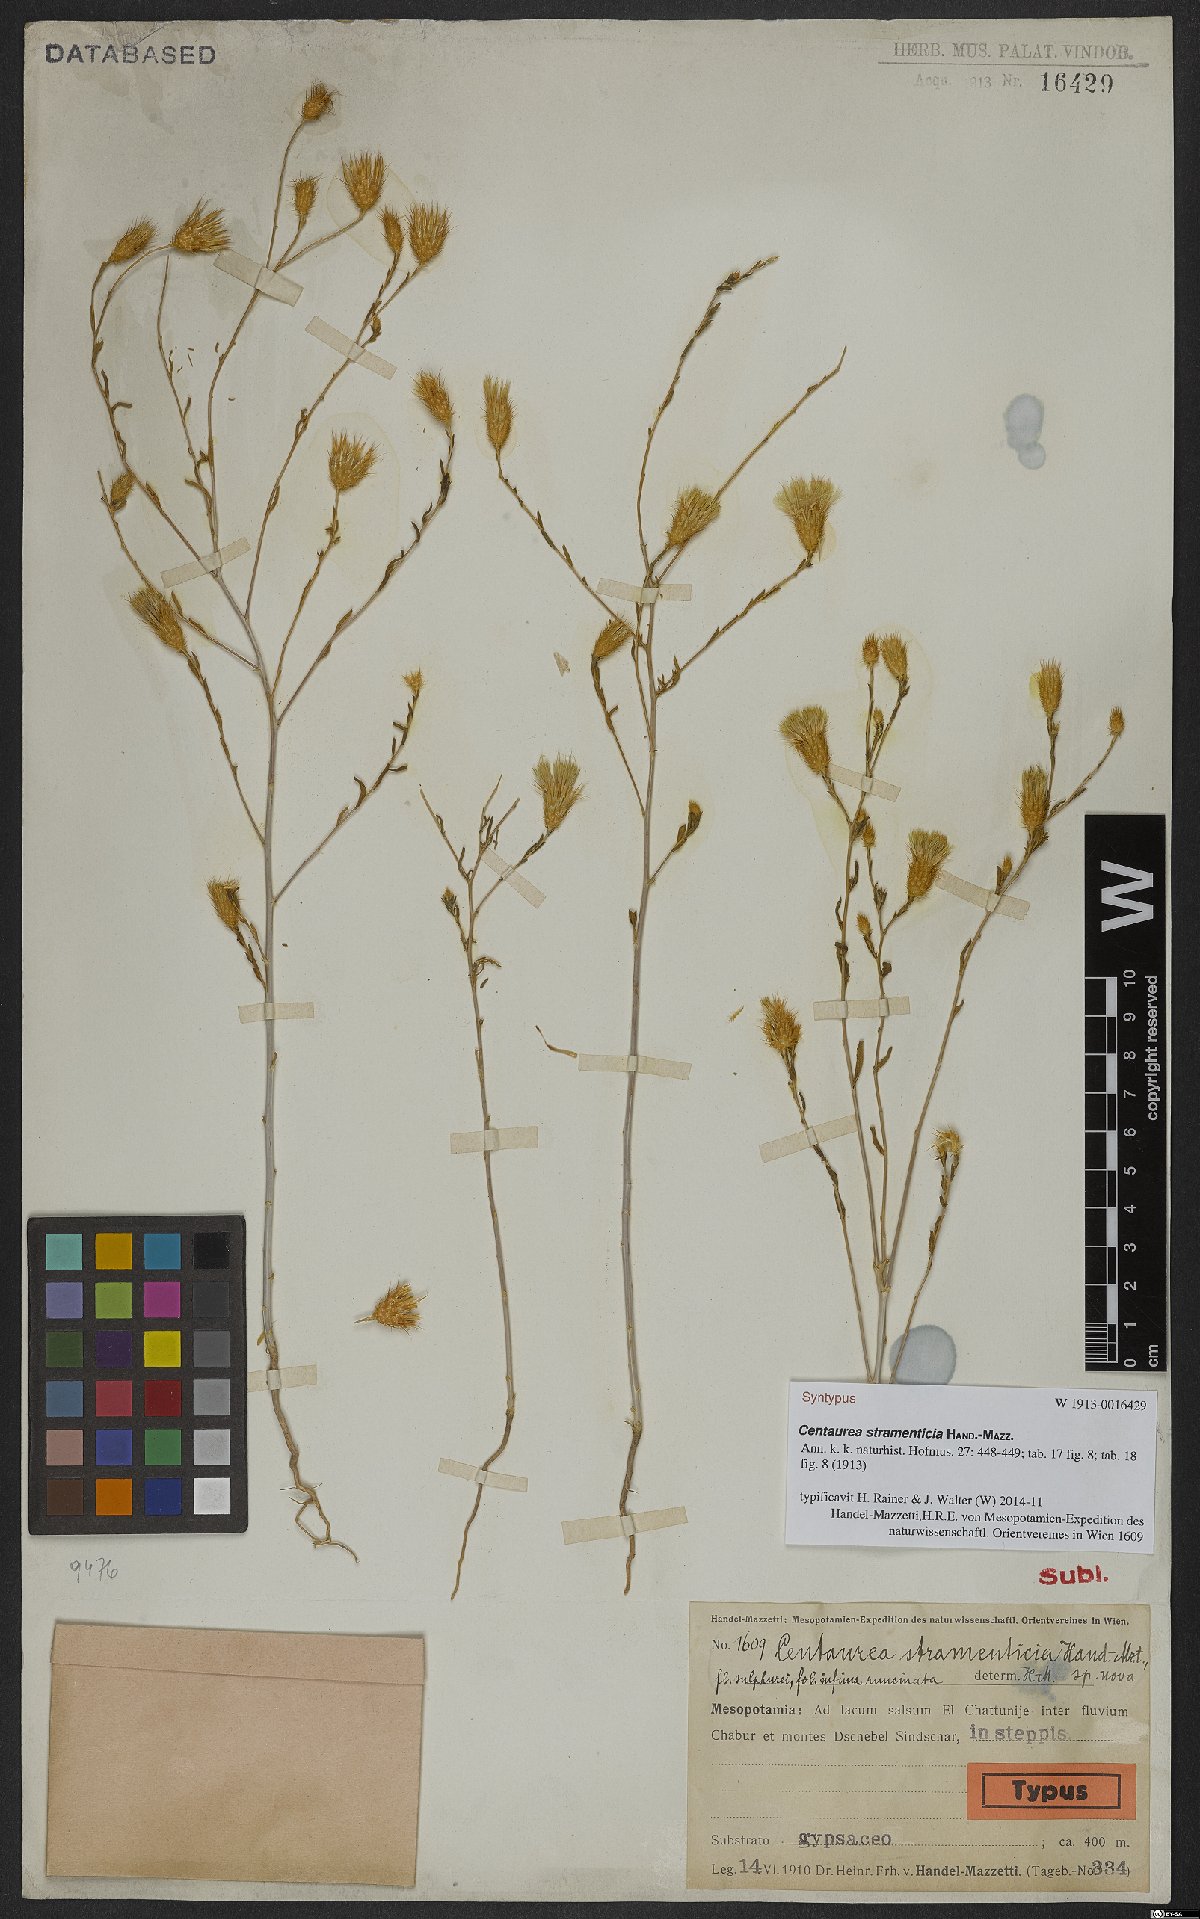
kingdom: Plantae
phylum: Tracheophyta
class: Magnoliopsida
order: Asterales
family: Asteraceae
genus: Stizolophus
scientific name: Stizolophus balsamitoides
